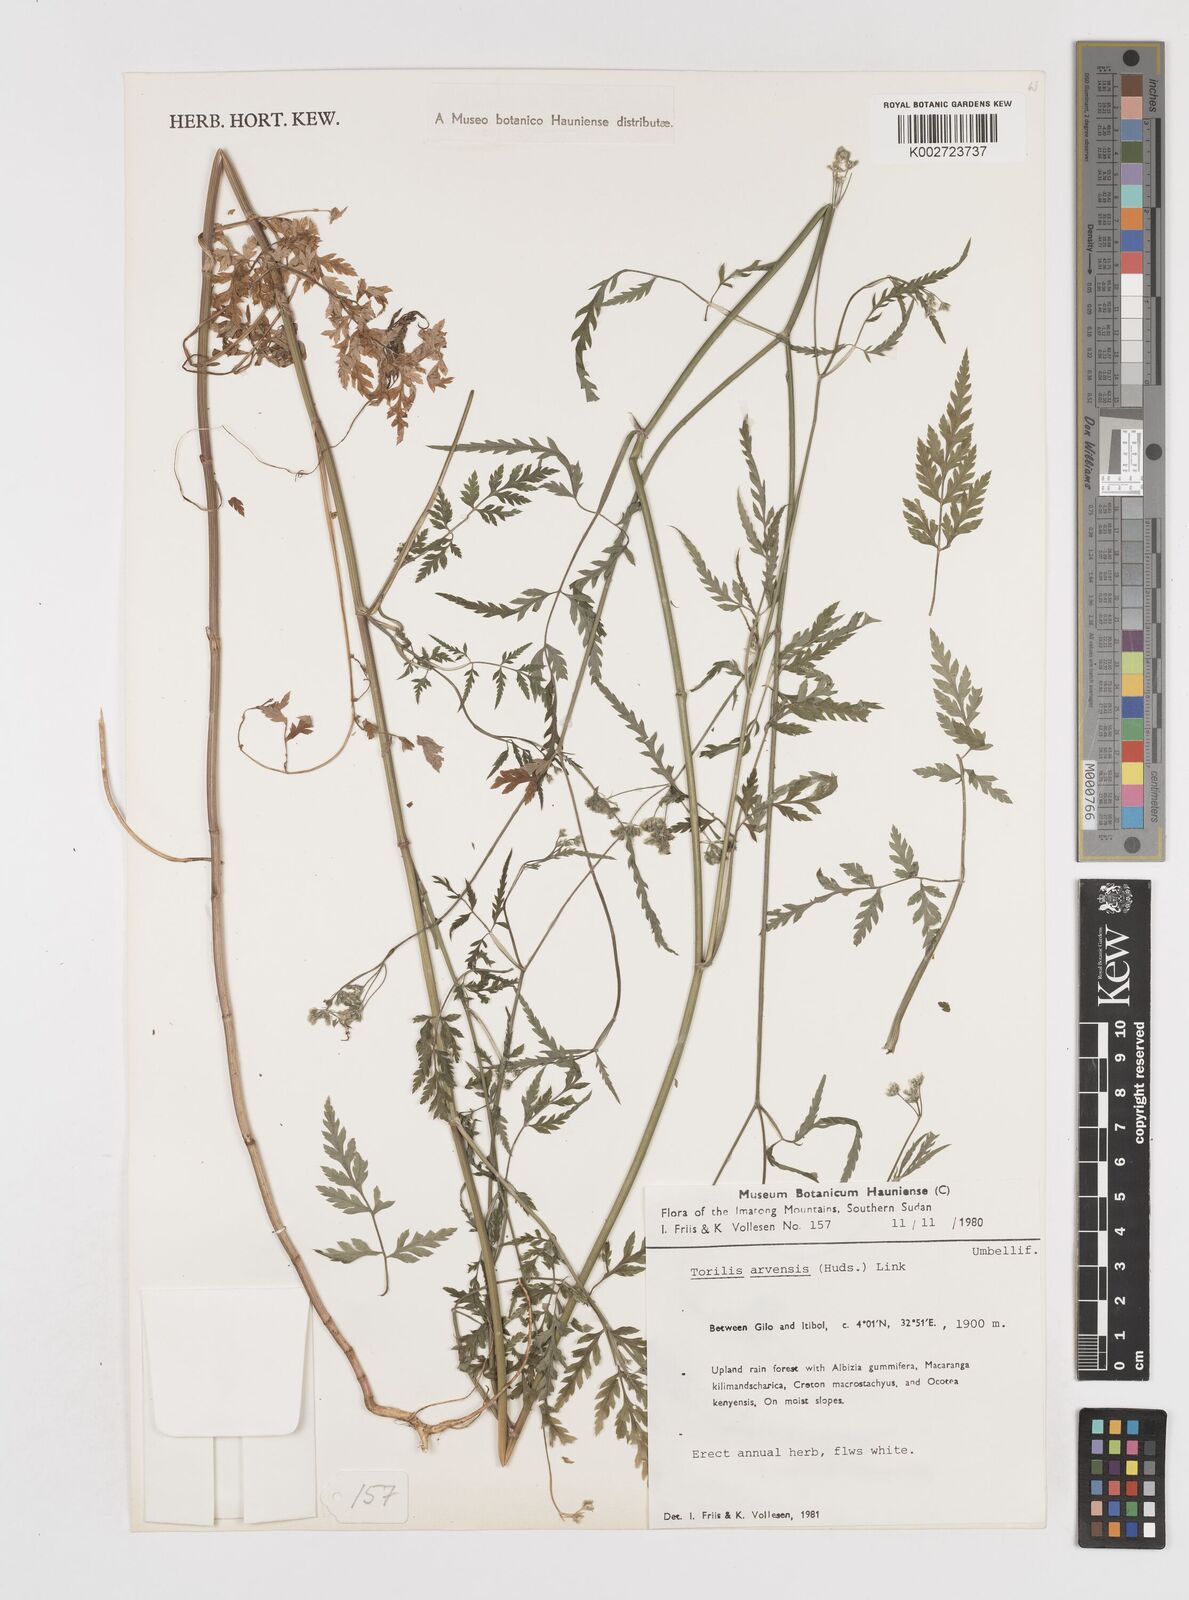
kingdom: Plantae
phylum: Tracheophyta
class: Magnoliopsida
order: Apiales
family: Apiaceae
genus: Torilis
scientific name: Torilis arvensis
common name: Spreading hedge-parsley
